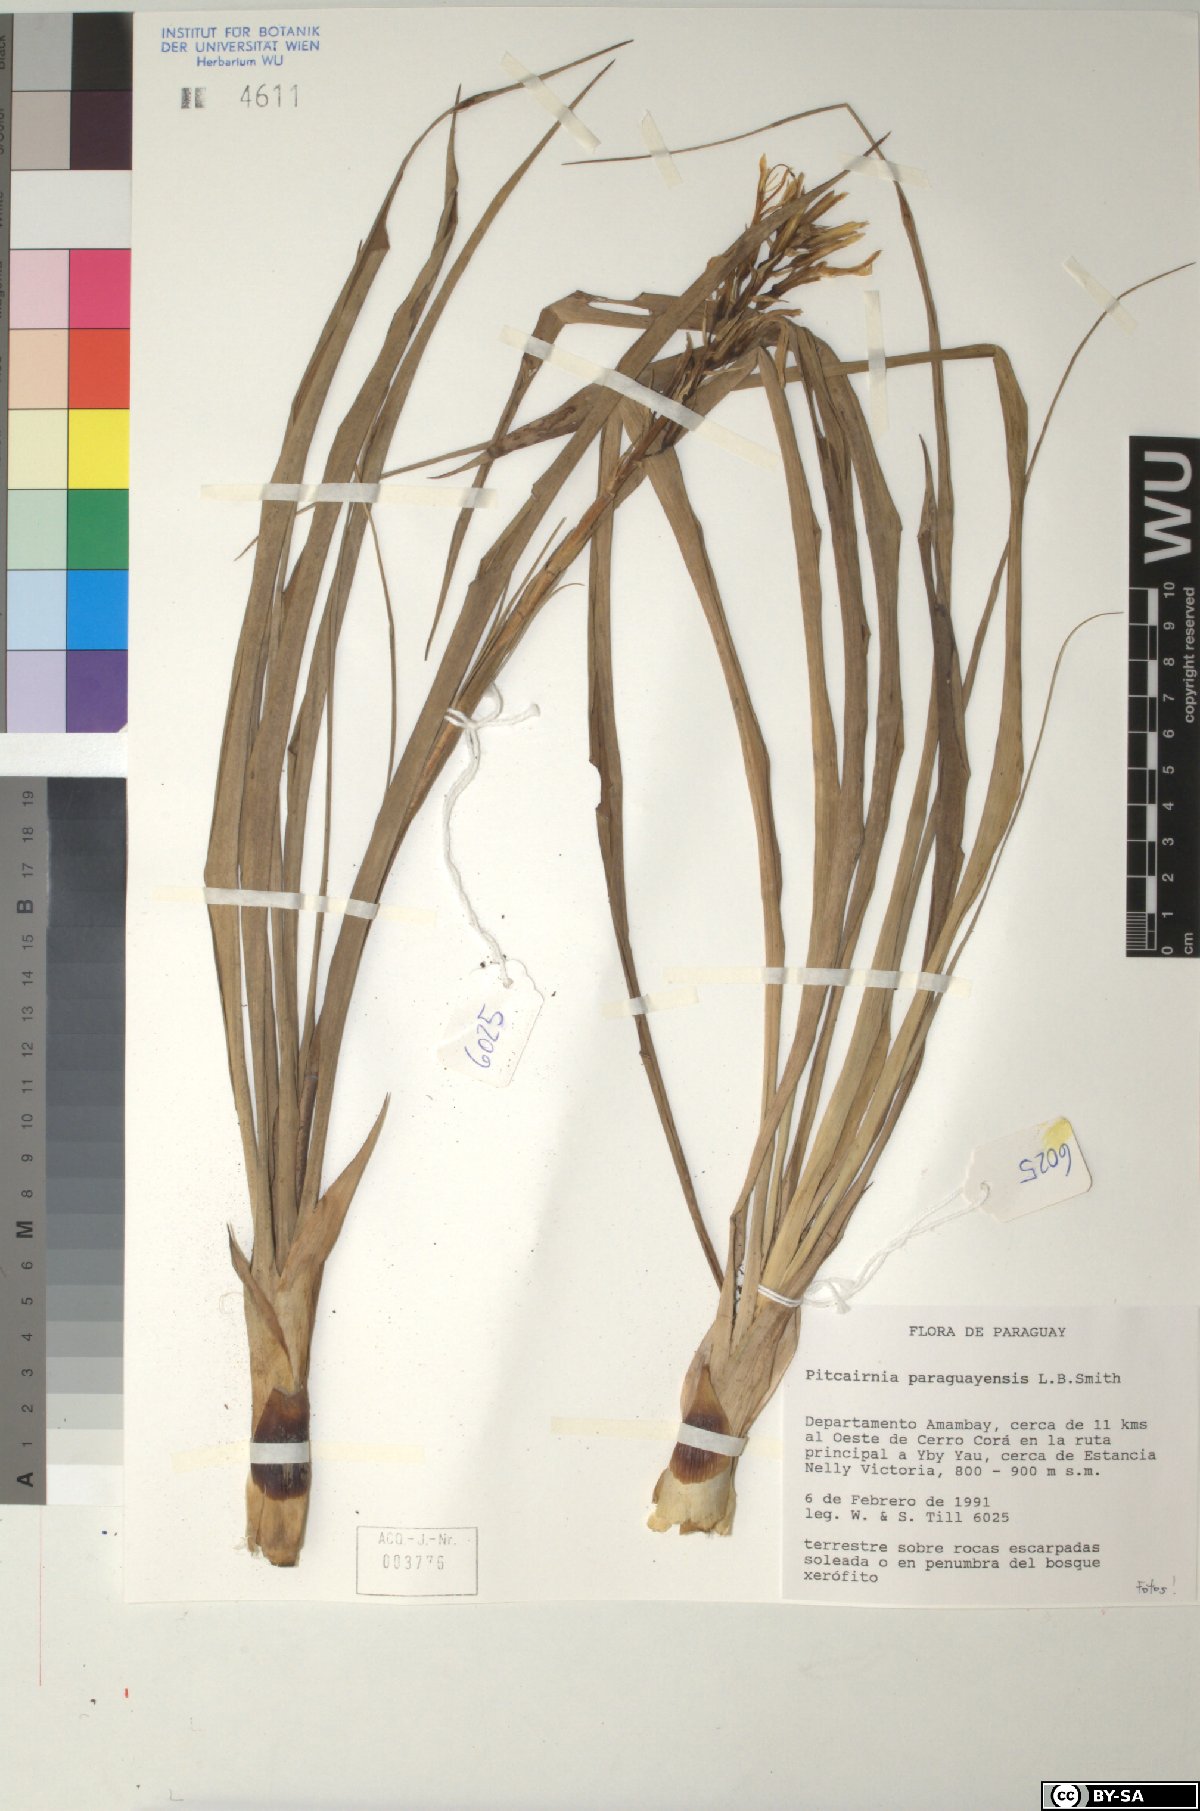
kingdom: Plantae
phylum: Tracheophyta
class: Liliopsida
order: Poales
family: Bromeliaceae
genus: Pitcairnia
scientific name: Pitcairnia paraguayensis
